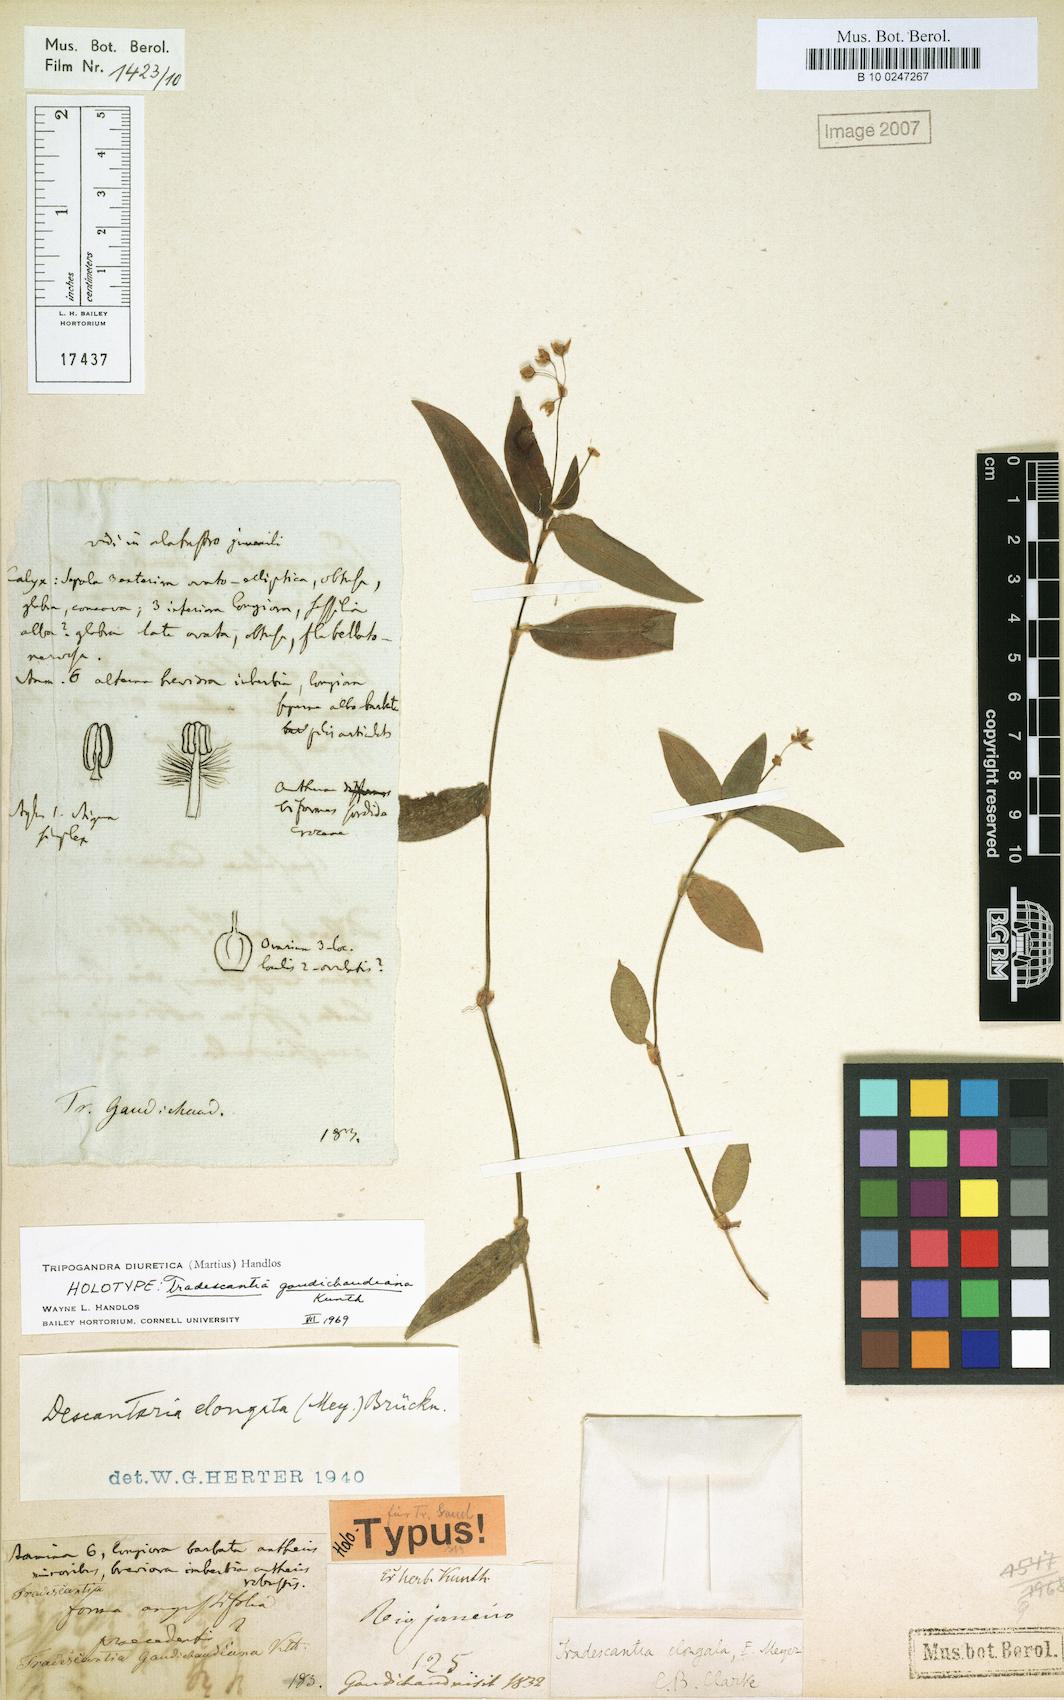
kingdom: Plantae
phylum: Tracheophyta
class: Liliopsida
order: Commelinales
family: Commelinaceae
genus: Callisia
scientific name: Callisia diuretica
